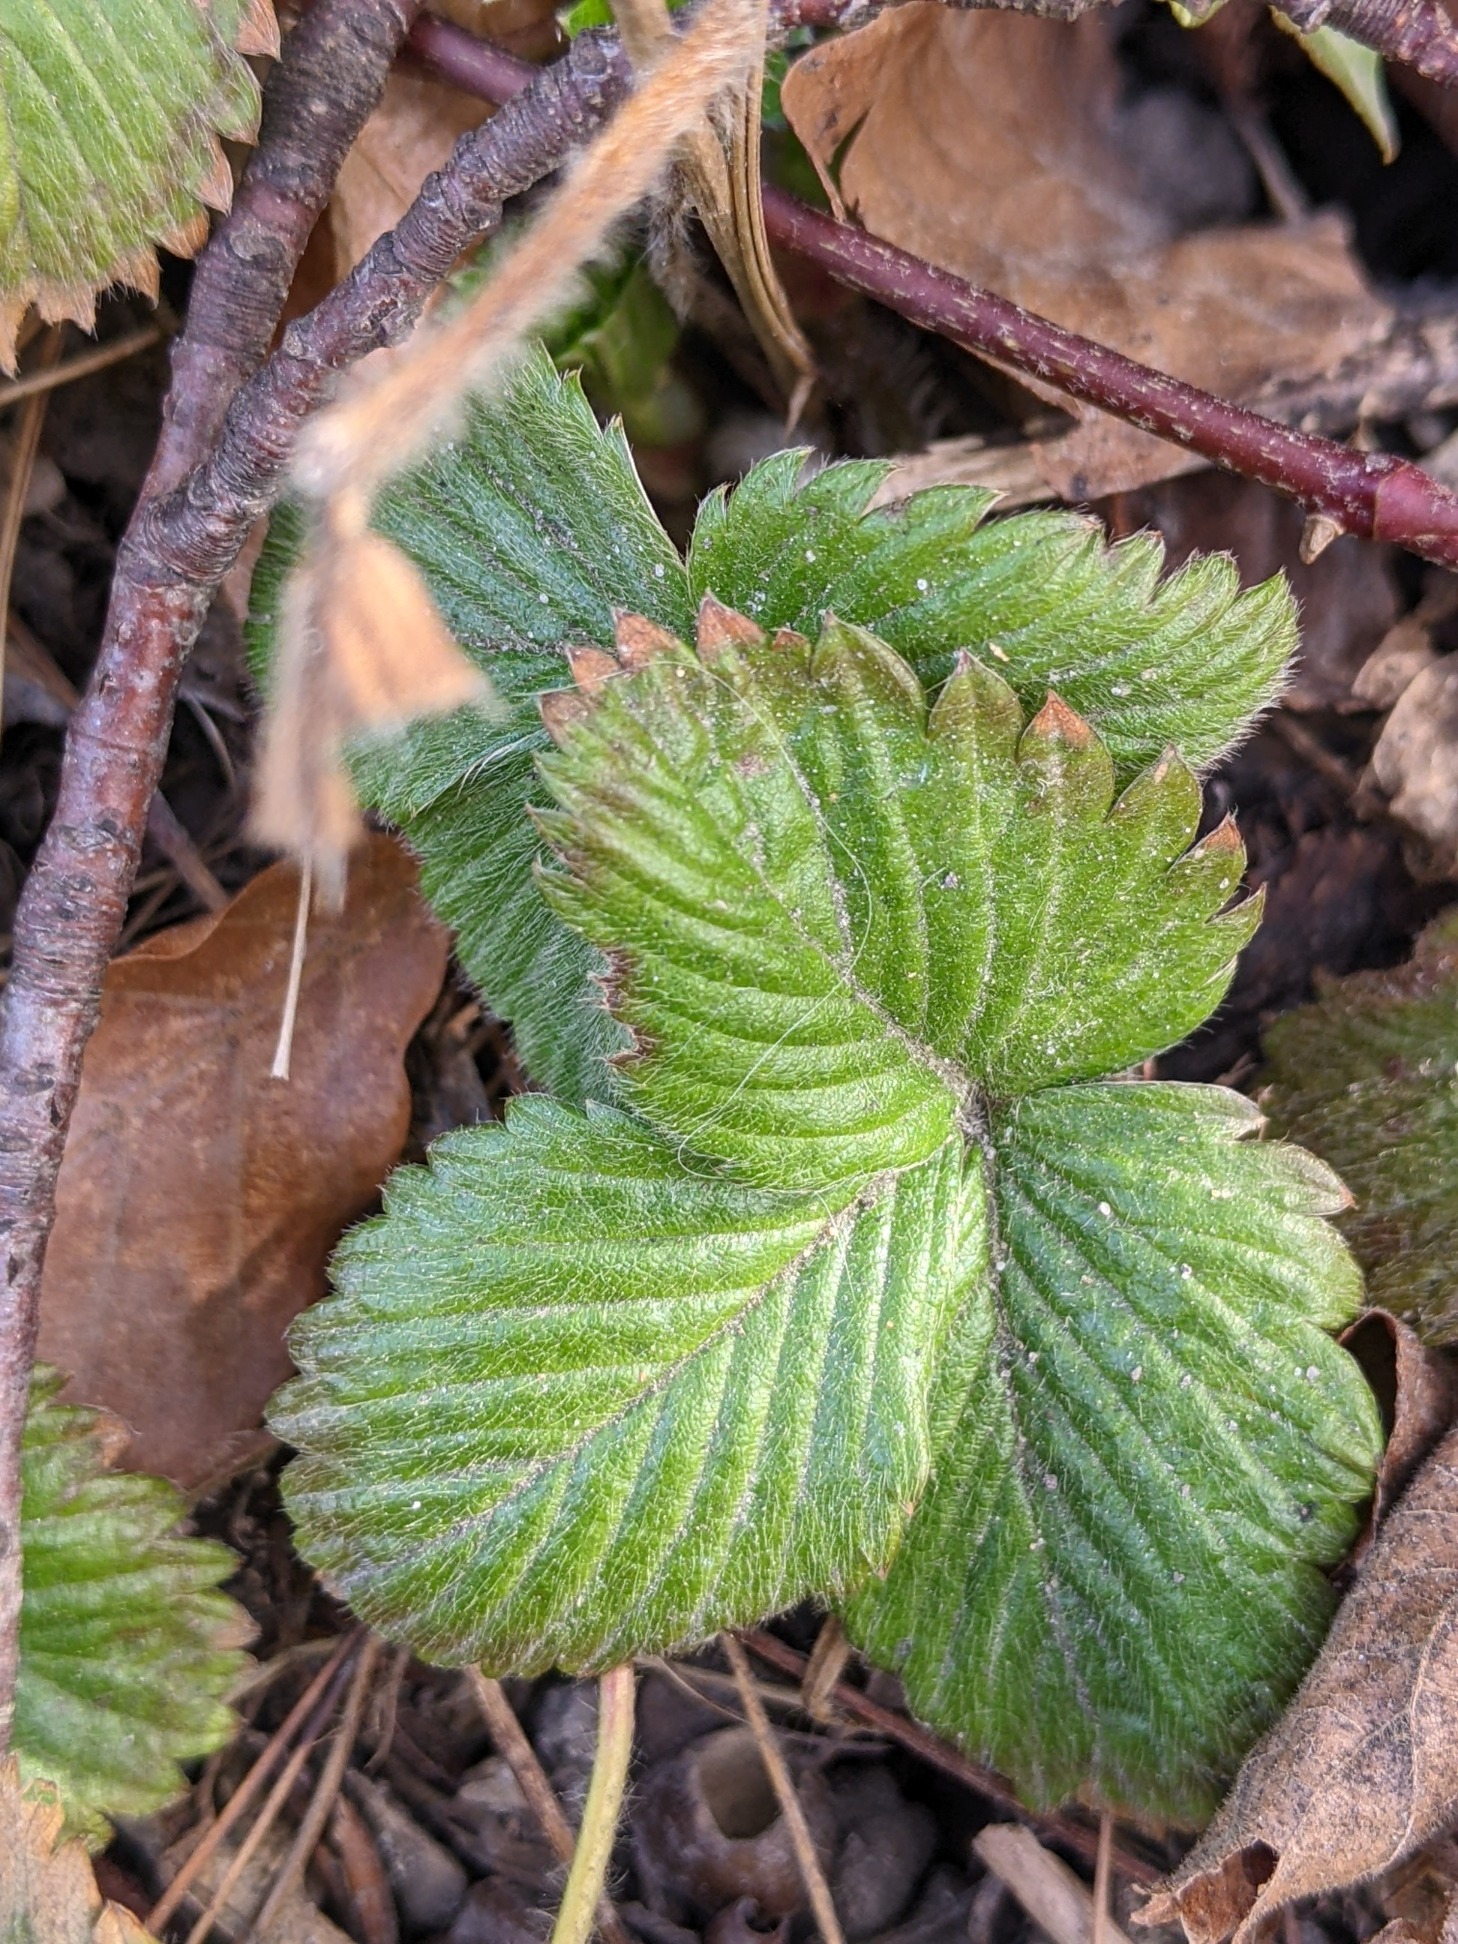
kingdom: Plantae
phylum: Tracheophyta
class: Magnoliopsida
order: Rosales
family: Rosaceae
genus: Fragaria
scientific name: Fragaria vesca
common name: Skov-jordbær
